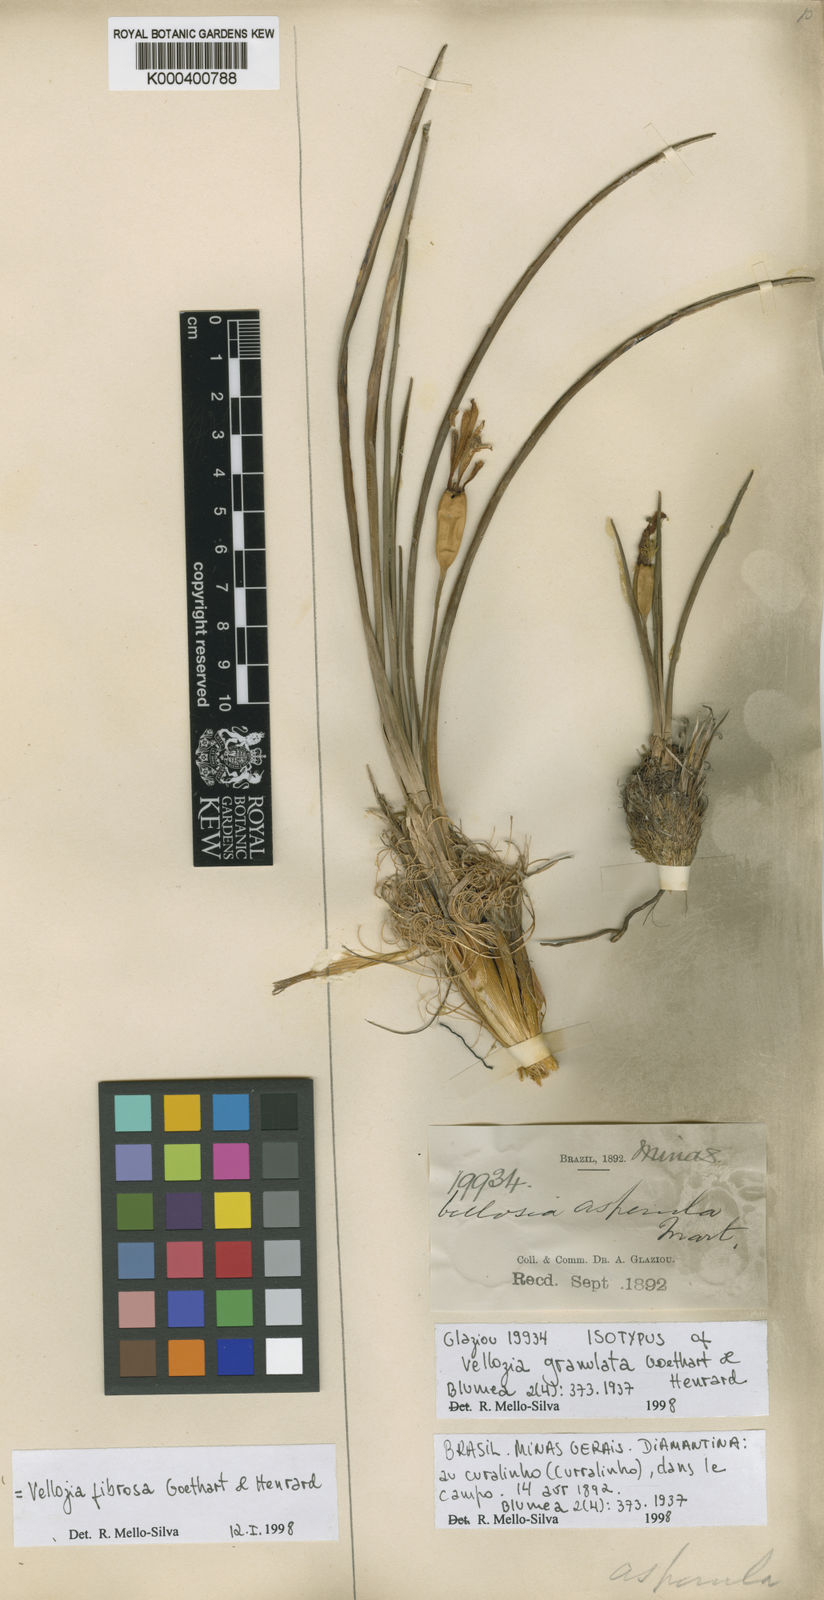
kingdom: Plantae
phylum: Tracheophyta
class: Liliopsida
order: Pandanales
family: Velloziaceae
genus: Vellozia
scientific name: Vellozia fibrosa
